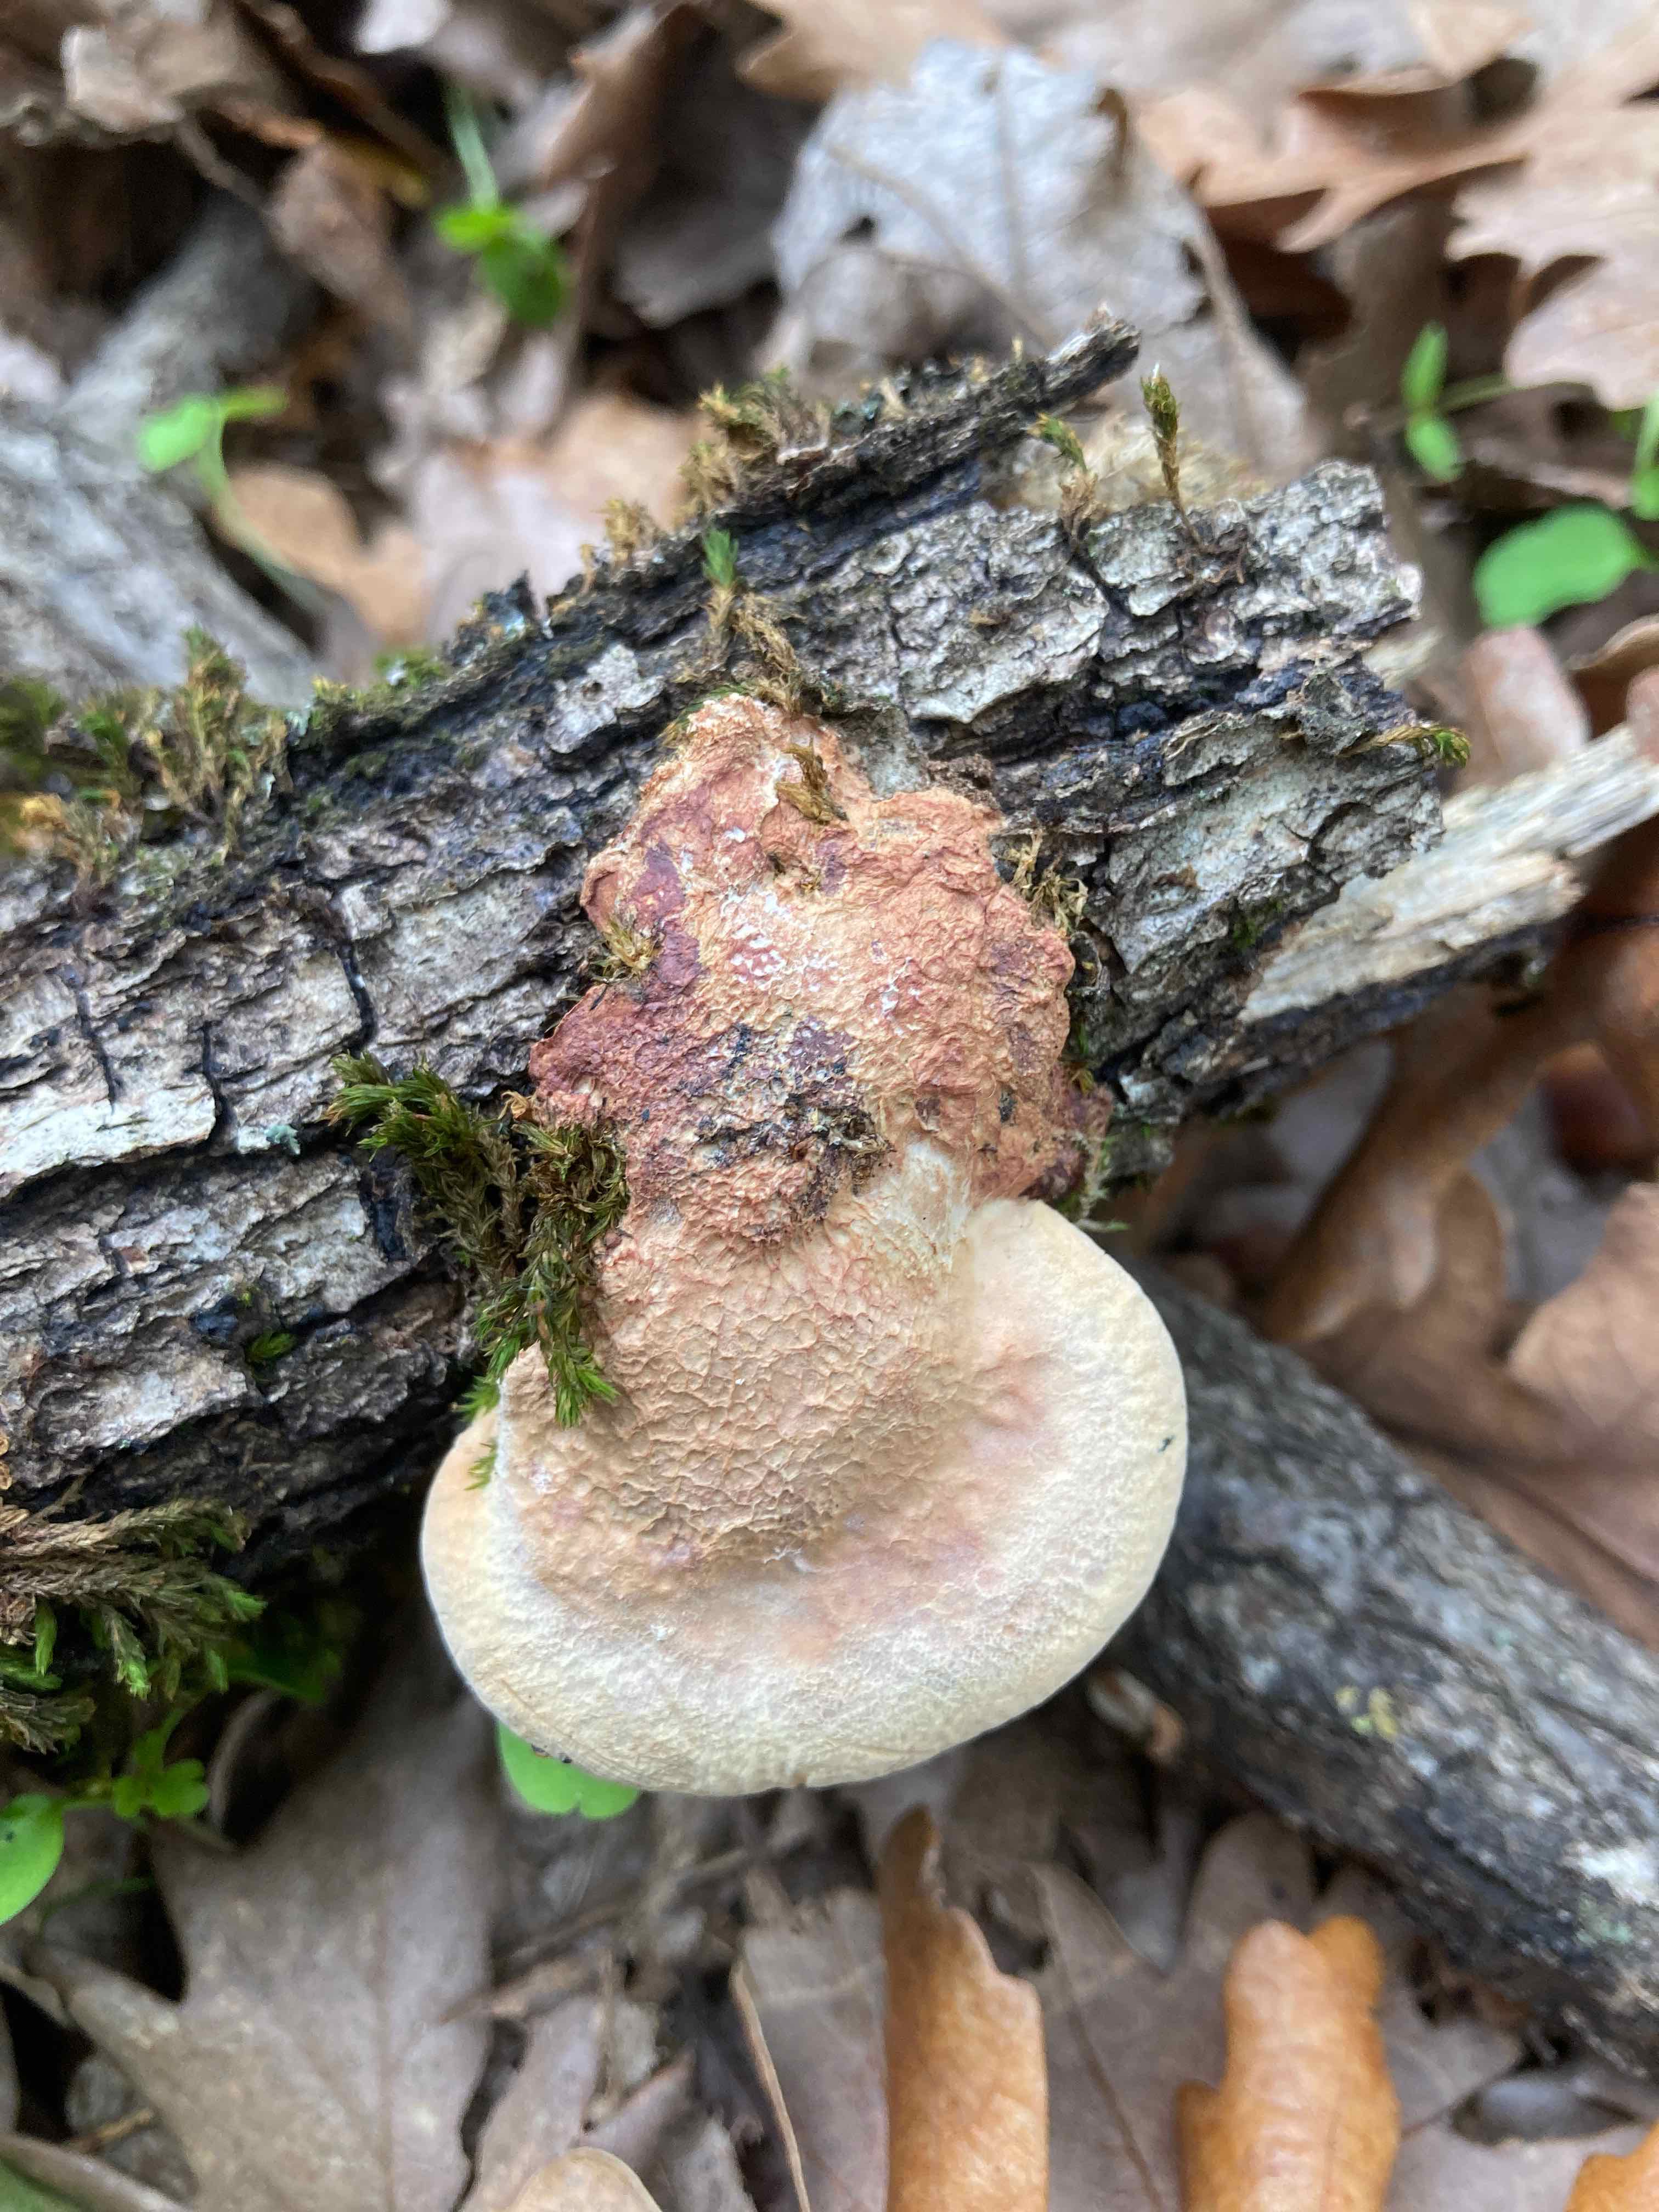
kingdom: Fungi
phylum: Basidiomycota
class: Agaricomycetes
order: Polyporales
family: Phanerochaetaceae
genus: Hapalopilus
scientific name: Hapalopilus rutilans
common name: rødlig okkerporesvamp
